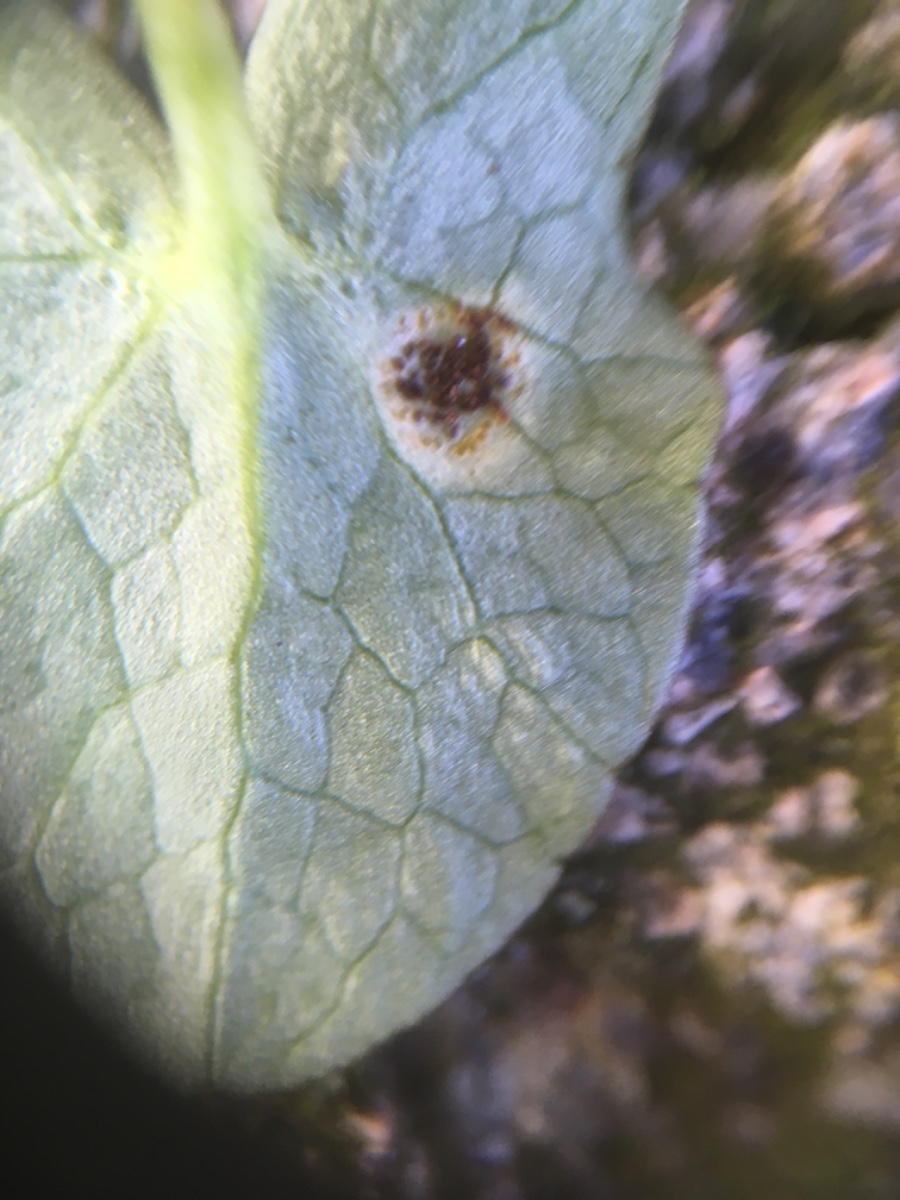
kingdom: Fungi
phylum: Basidiomycota
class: Pucciniomycetes
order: Pucciniales
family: Pucciniaceae
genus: Uromyces
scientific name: Uromyces ficariae
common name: vorterod-encellerust
